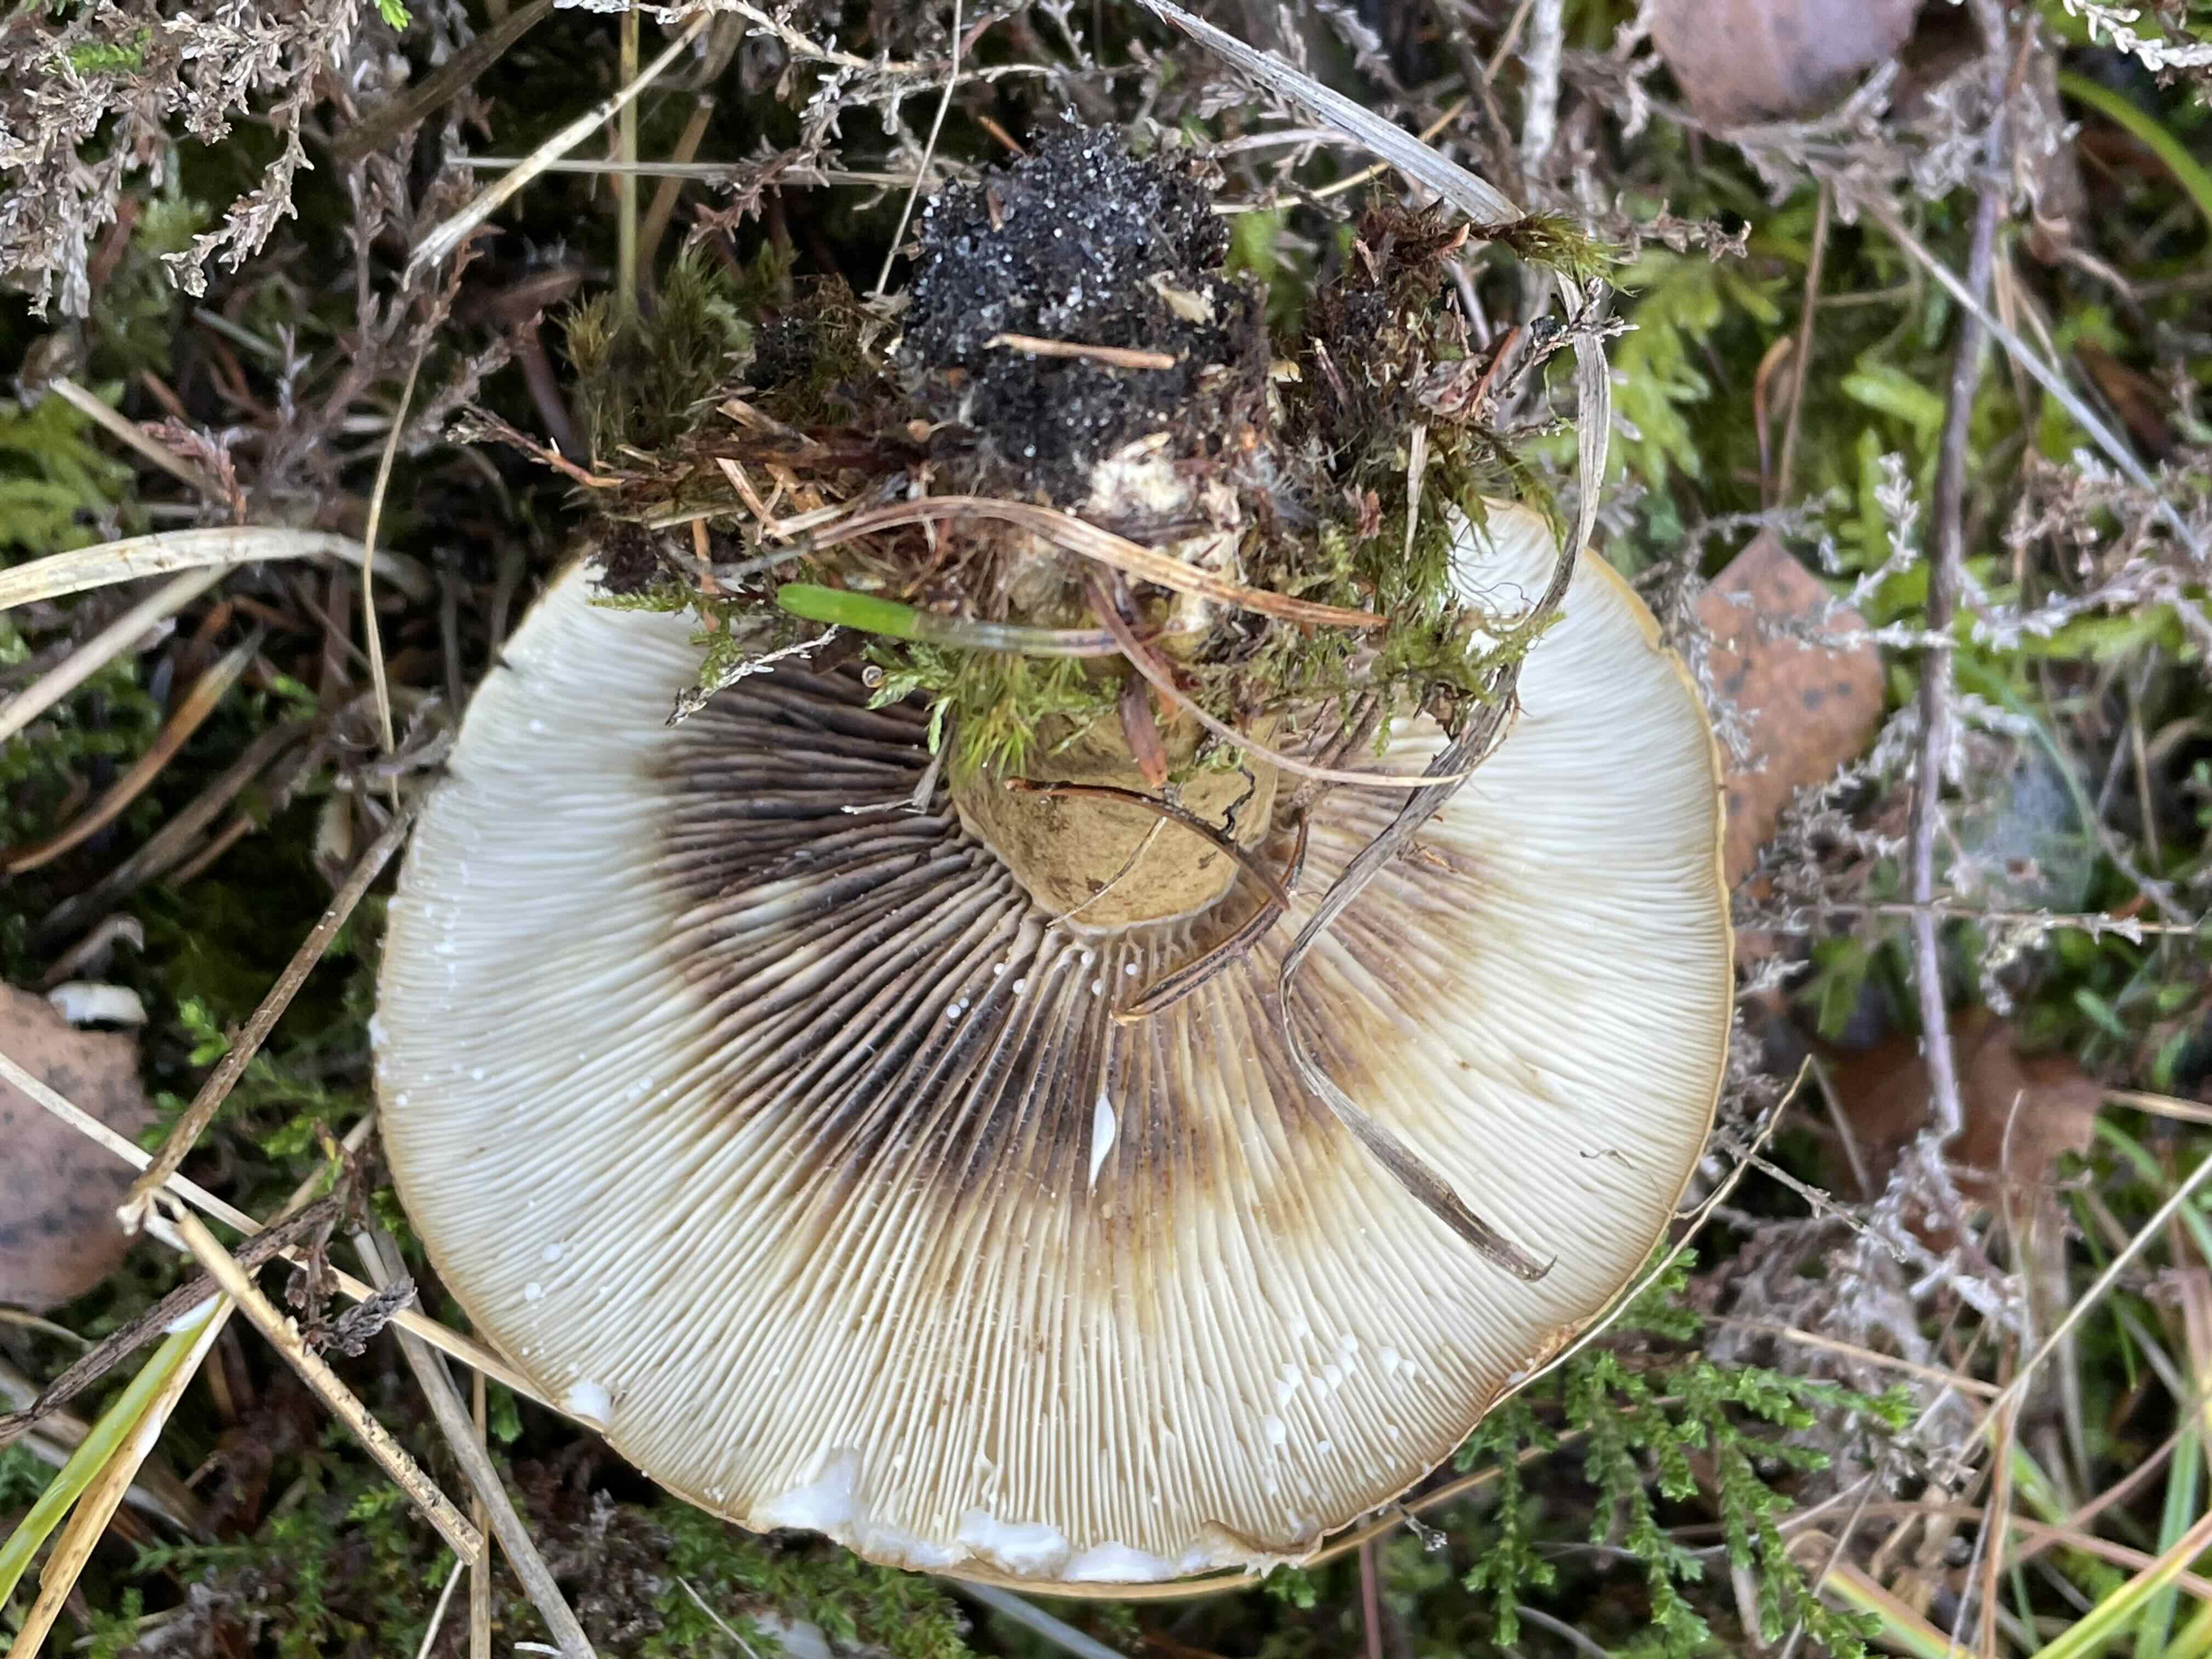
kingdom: Fungi
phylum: Basidiomycota
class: Agaricomycetes
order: Russulales
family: Russulaceae
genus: Lactarius
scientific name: Lactarius necator
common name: manddraber-mælkehat
